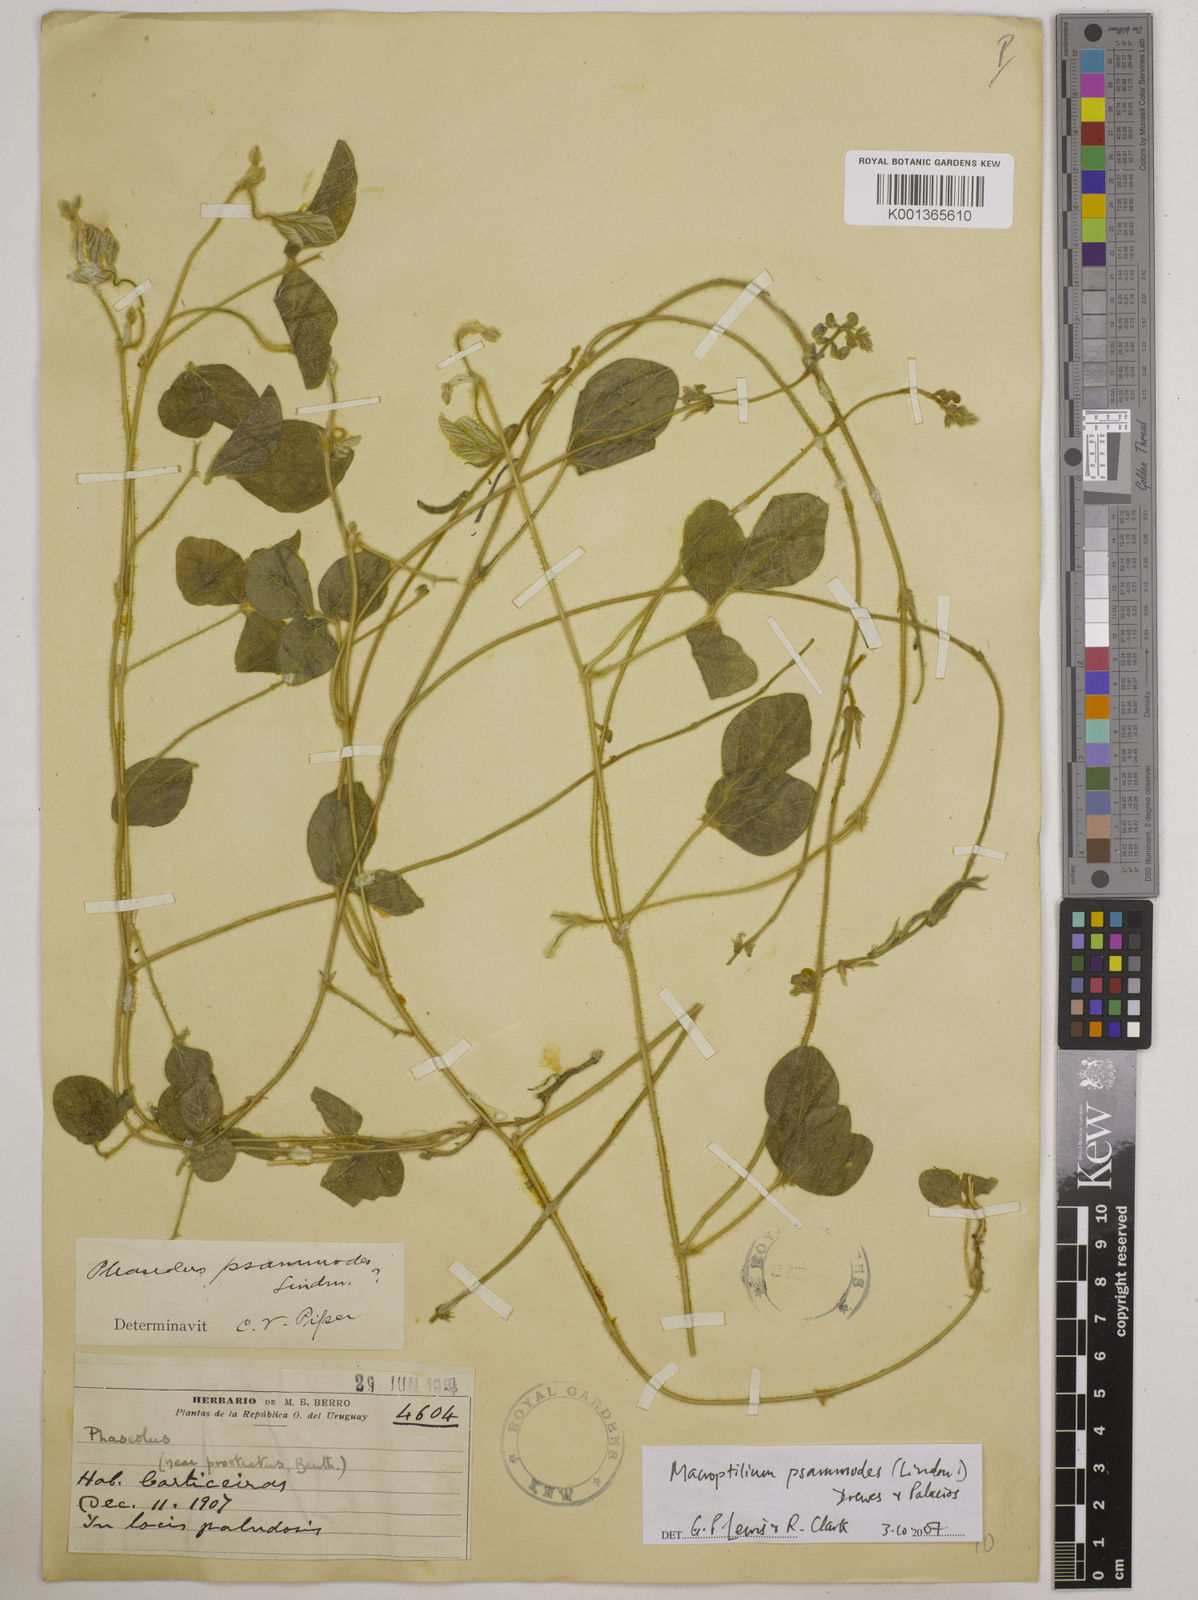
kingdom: Plantae
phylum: Tracheophyta
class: Magnoliopsida
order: Fabales
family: Fabaceae
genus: Macroptilium
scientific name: Macroptilium psammodes
